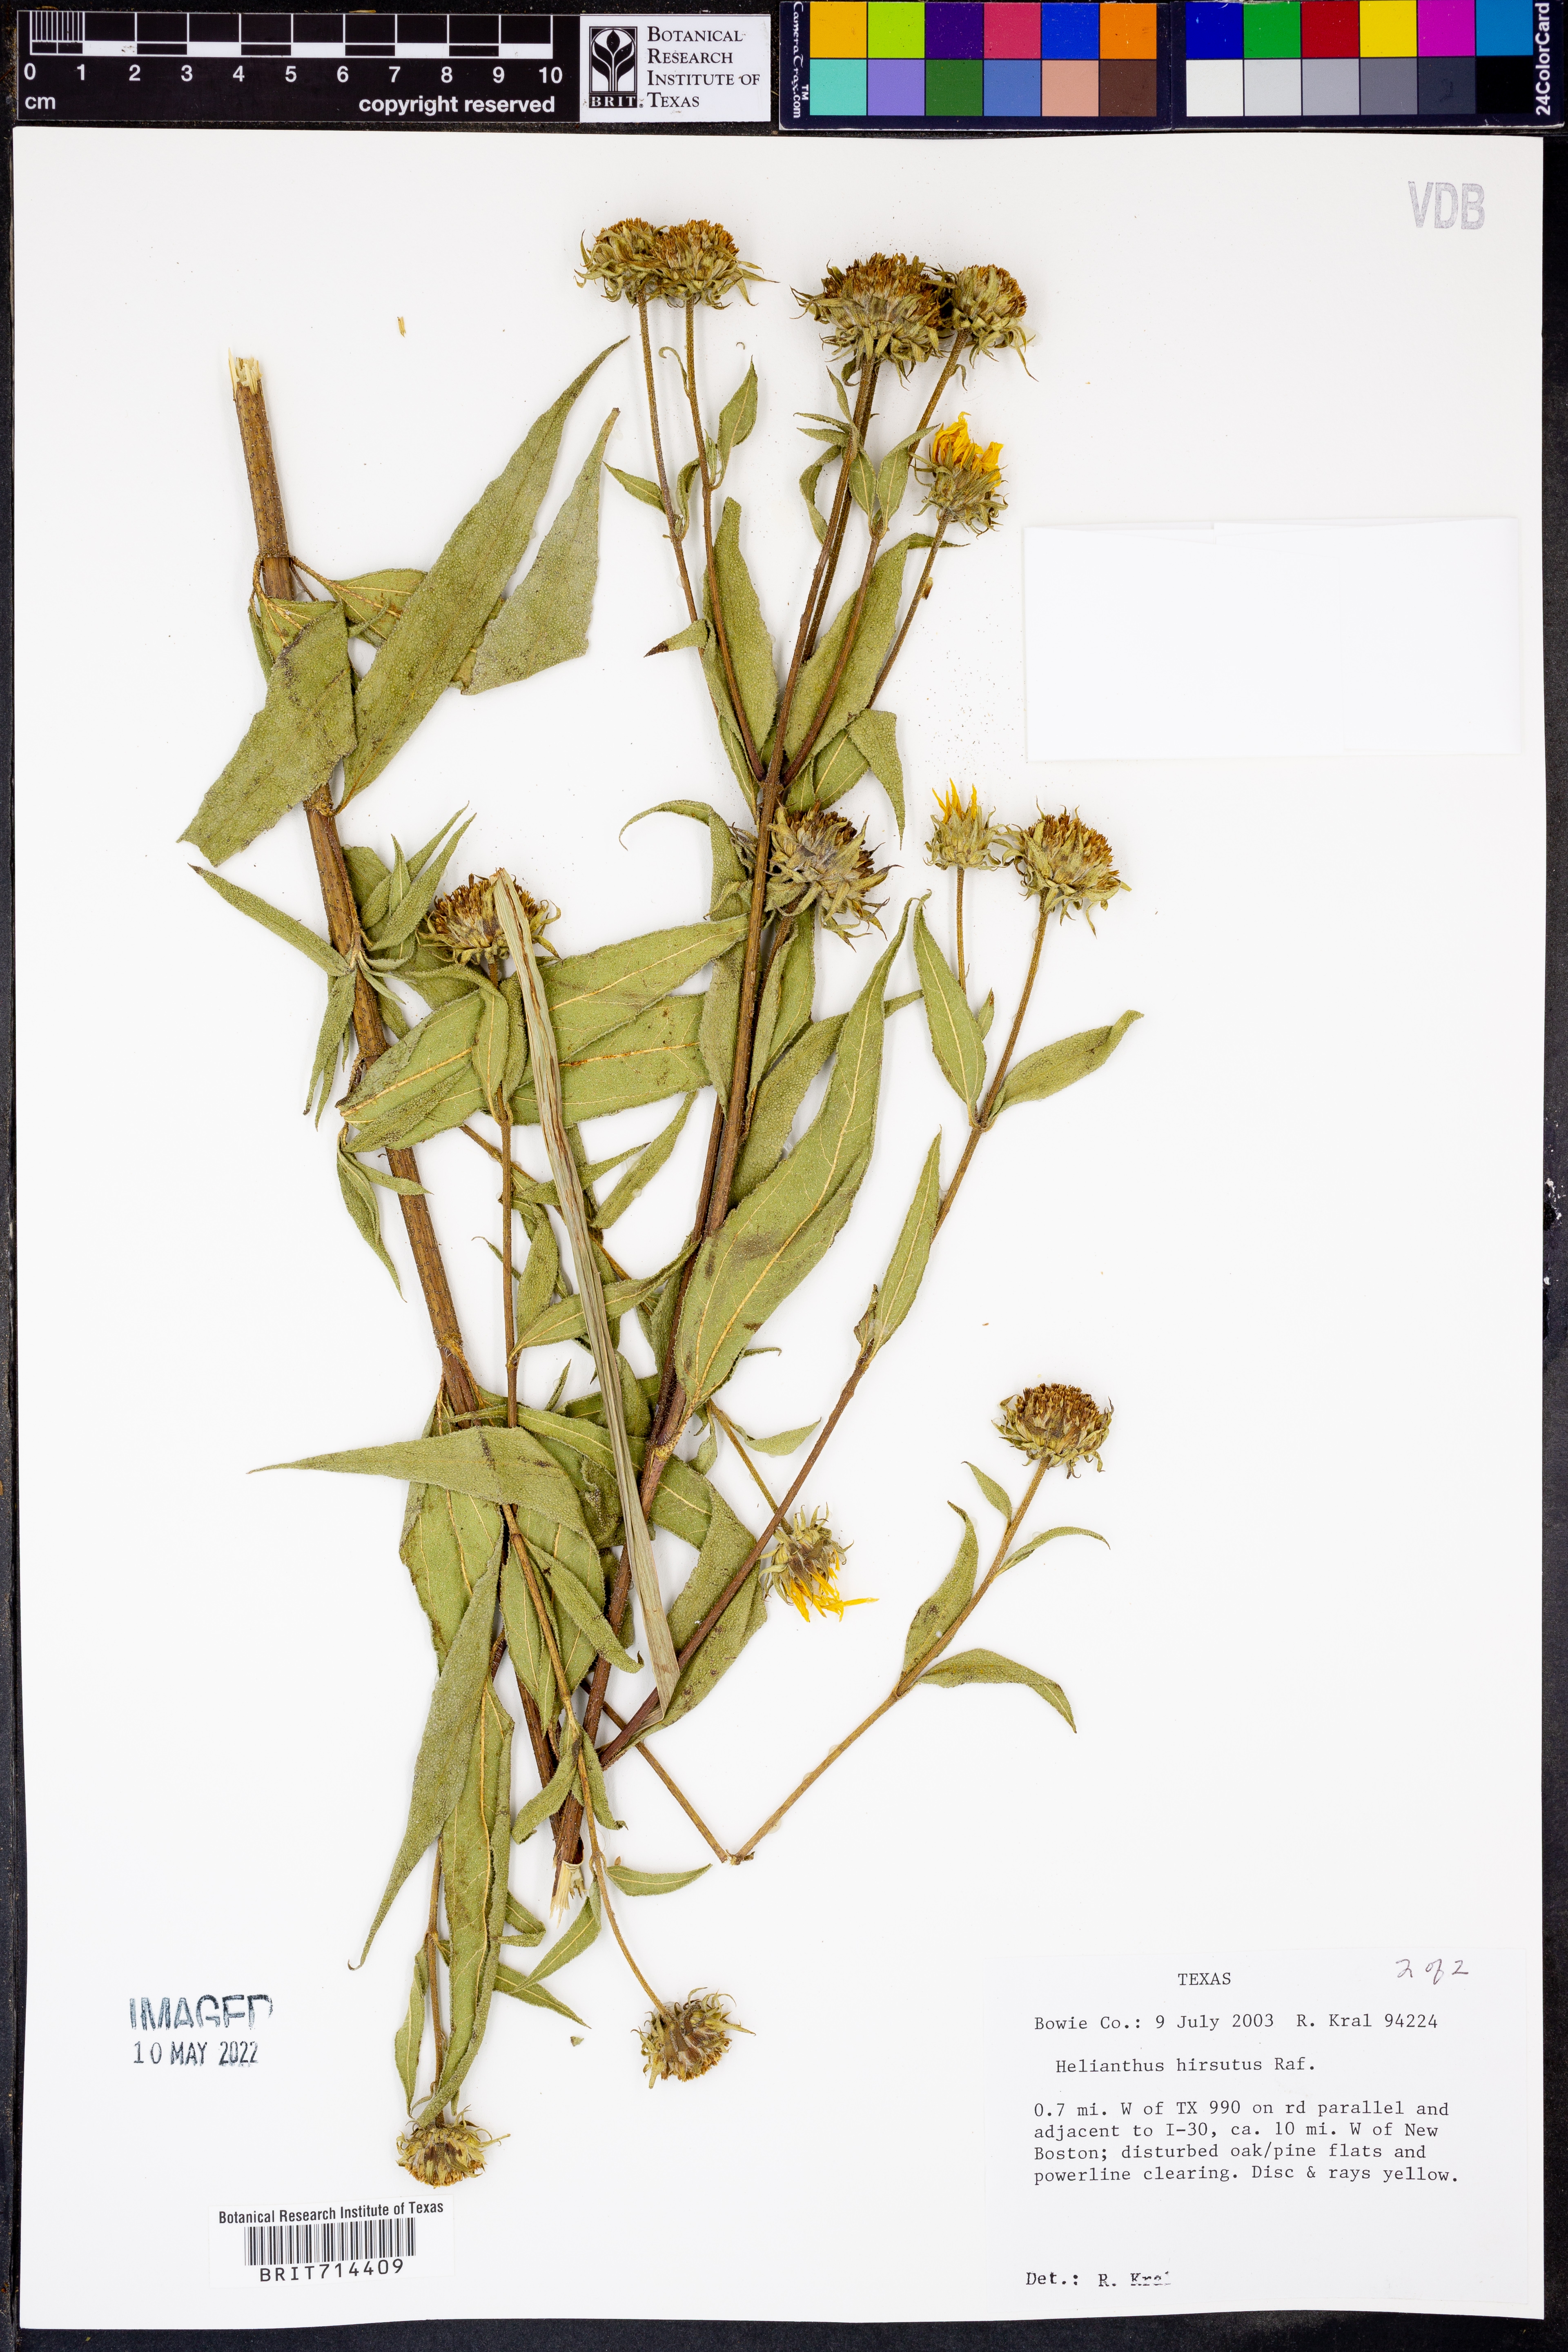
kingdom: Plantae
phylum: Tracheophyta
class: Magnoliopsida
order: Asterales
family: Asteraceae
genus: Helianthus
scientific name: Helianthus hirsutus
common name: Hairy sunflower
